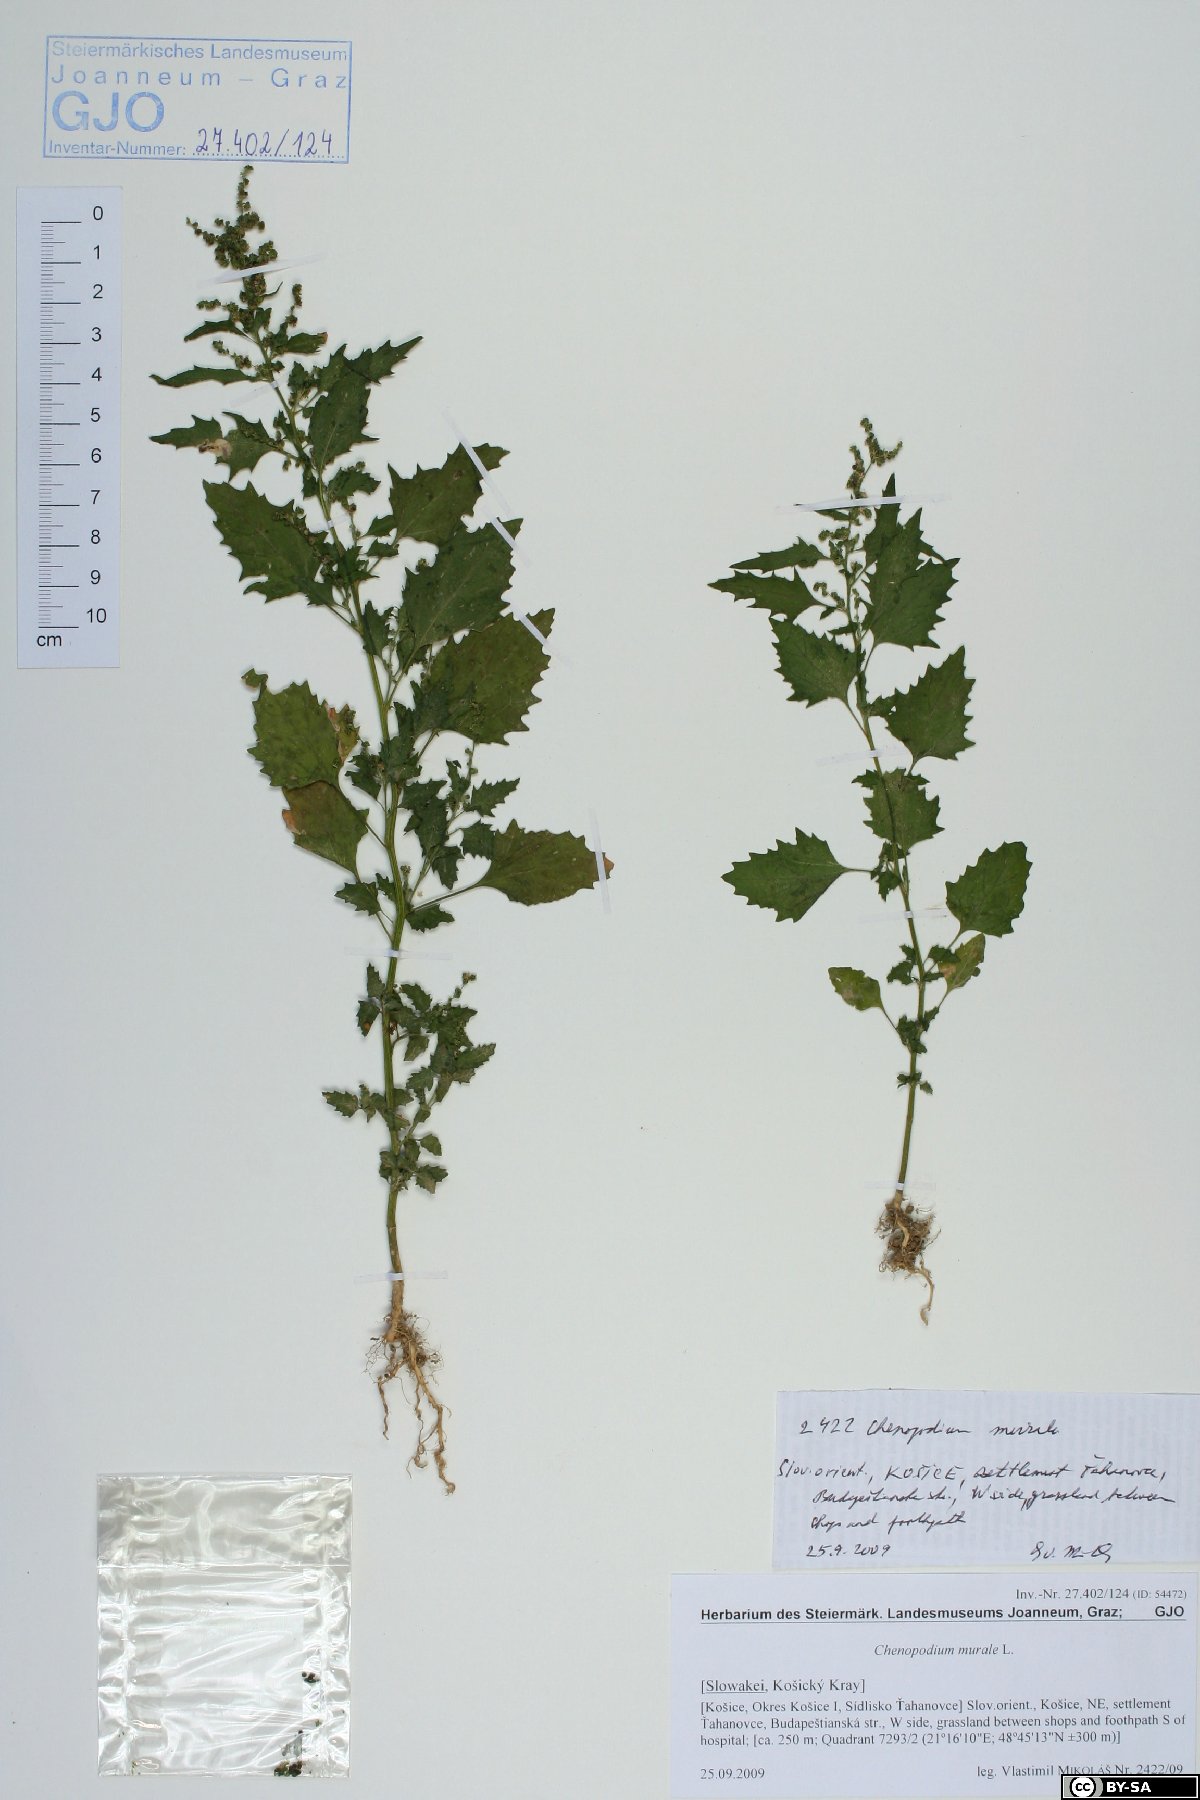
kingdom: Plantae
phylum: Tracheophyta
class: Magnoliopsida
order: Caryophyllales
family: Amaranthaceae
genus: Chenopodiastrum
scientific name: Chenopodiastrum murale
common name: Sowbane
